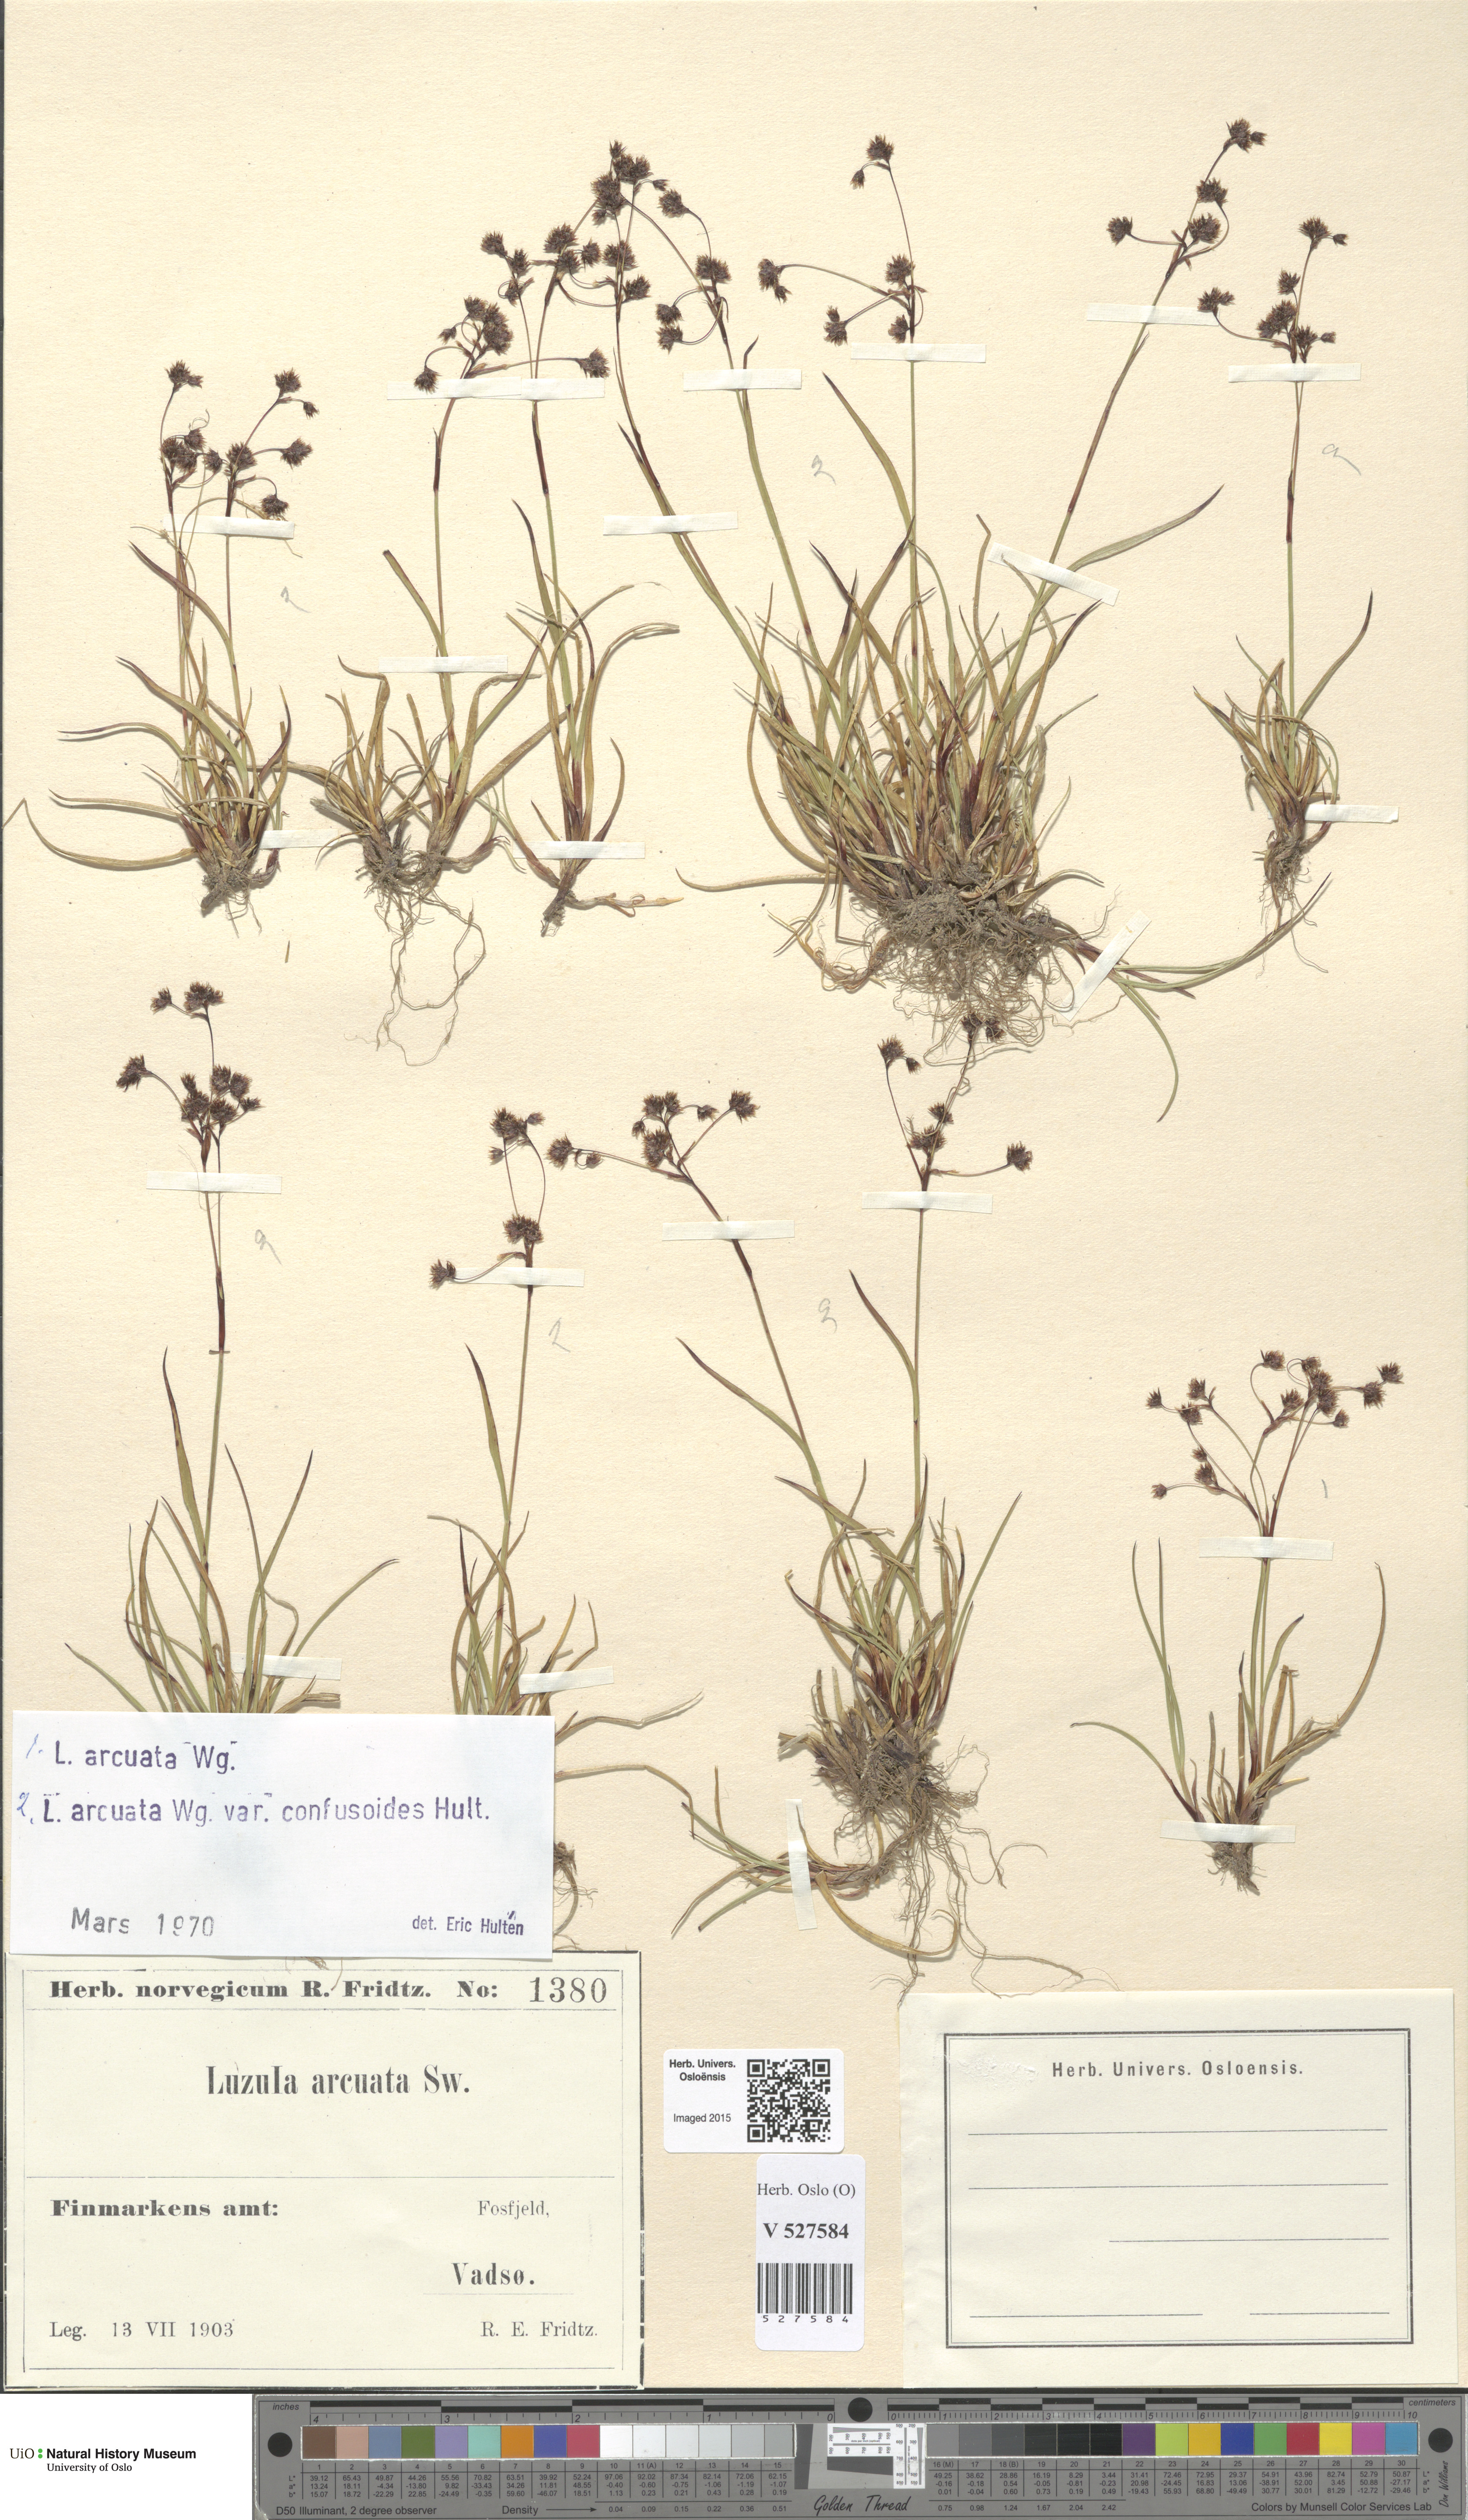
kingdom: Plantae
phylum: Tracheophyta
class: Liliopsida
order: Poales
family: Juncaceae
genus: Luzula
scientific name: Luzula arcuata
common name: Curved wood-rush
